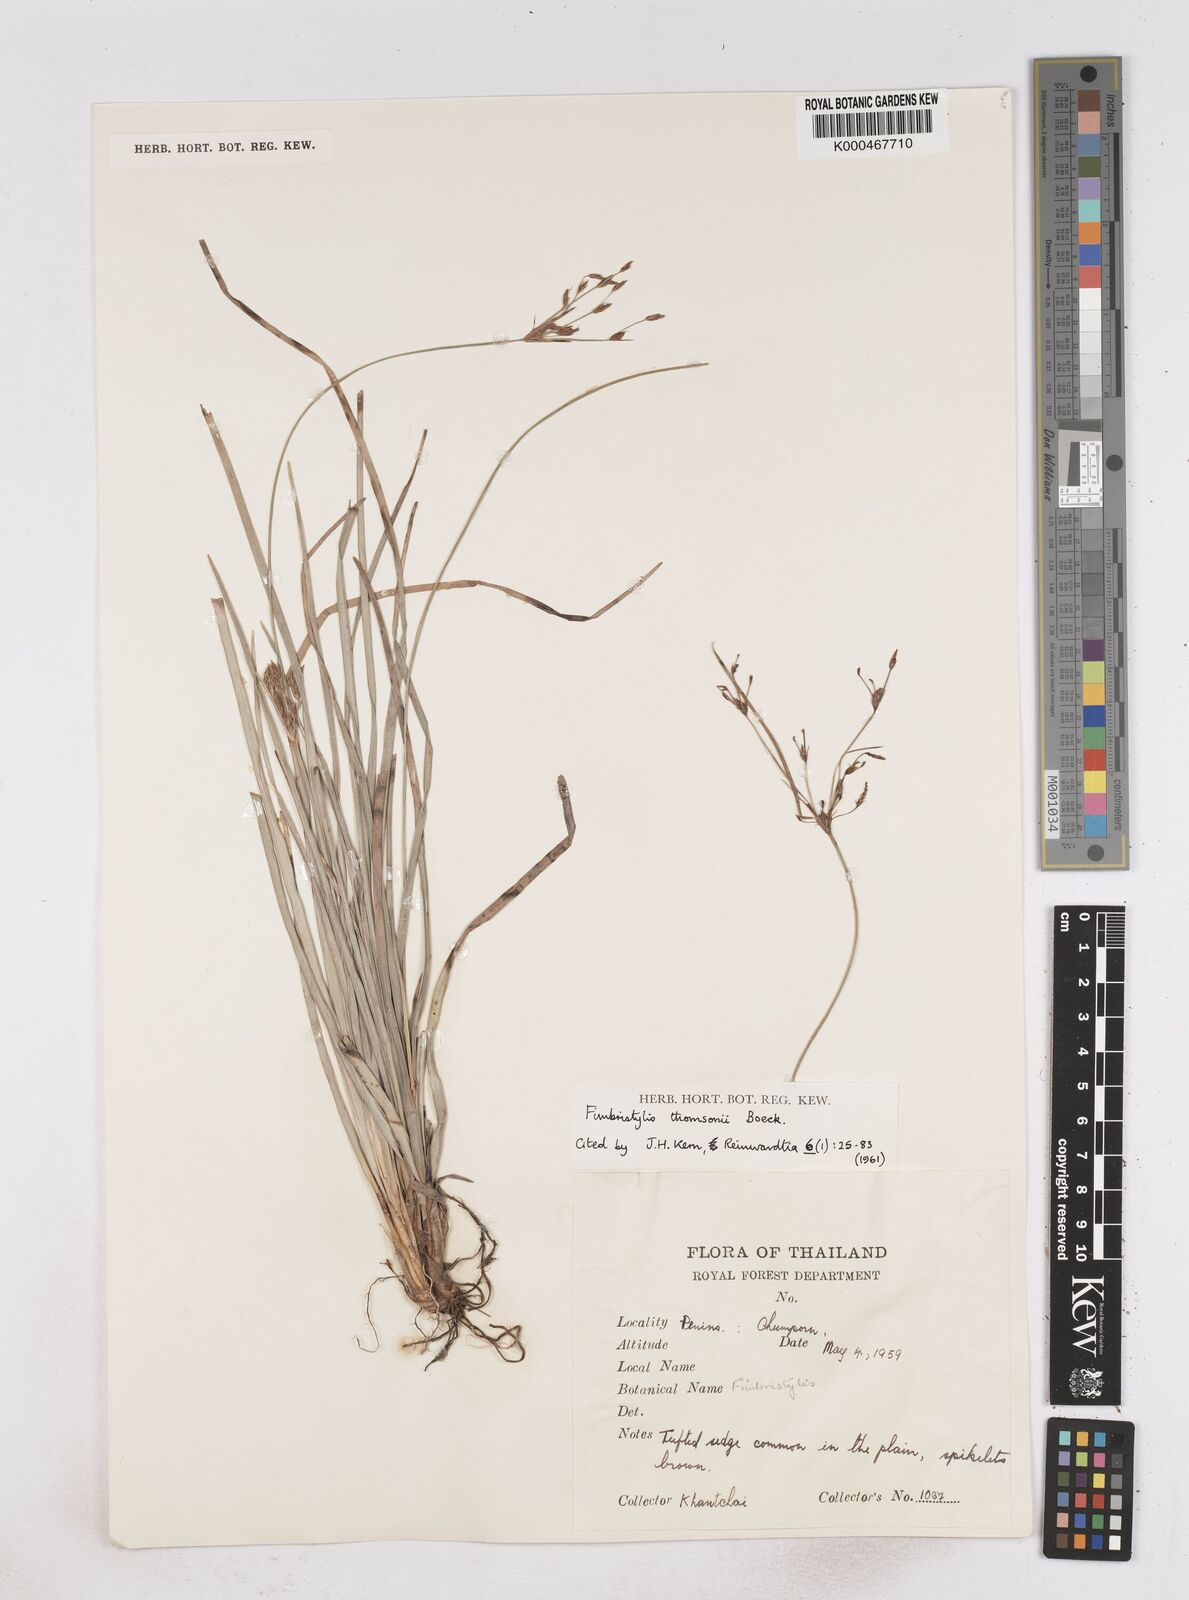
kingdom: Plantae
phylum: Tracheophyta
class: Liliopsida
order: Poales
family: Cyperaceae
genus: Fimbristylis
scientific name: Fimbristylis thomsonii
